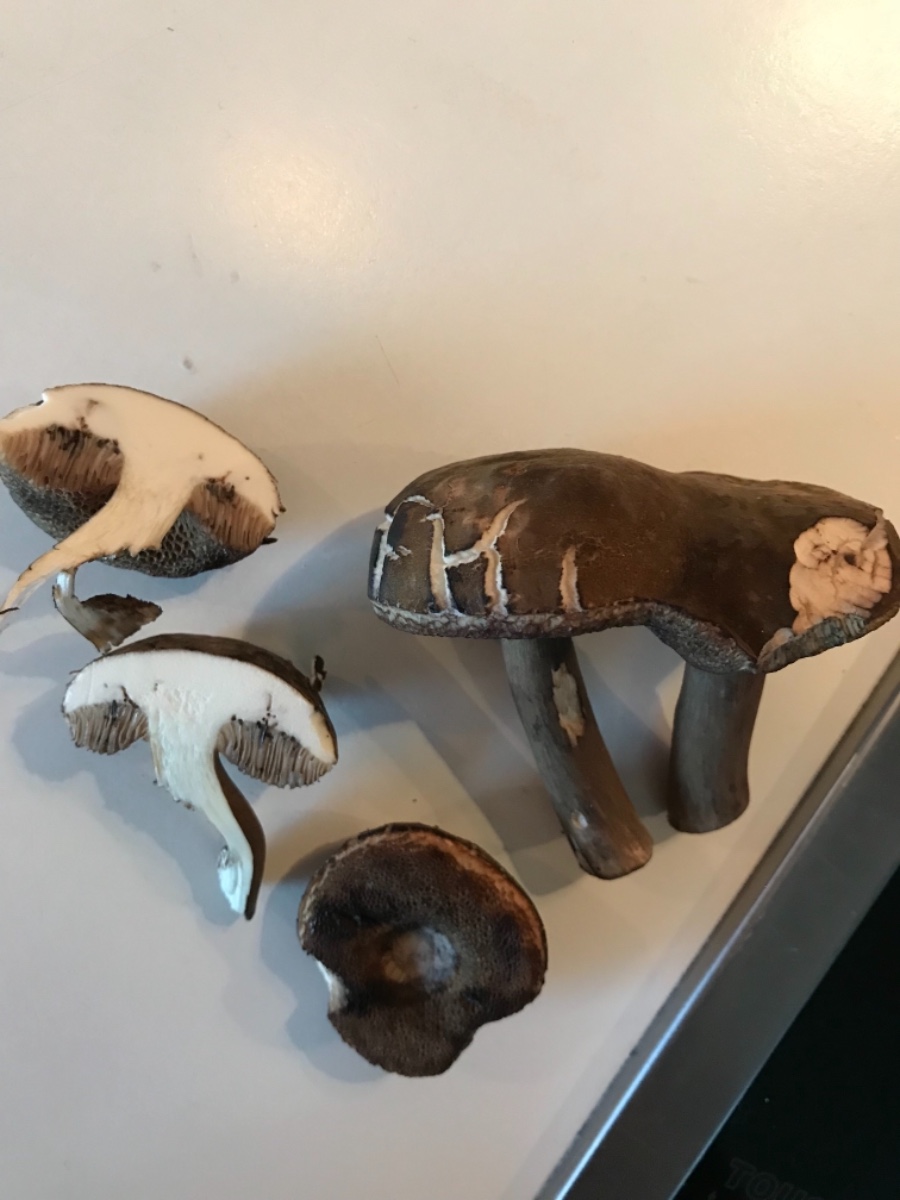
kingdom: Fungi
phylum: Basidiomycota
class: Agaricomycetes
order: Boletales
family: Boletaceae
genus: Porphyrellus
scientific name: Porphyrellus porphyrosporus
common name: sodrørhat
